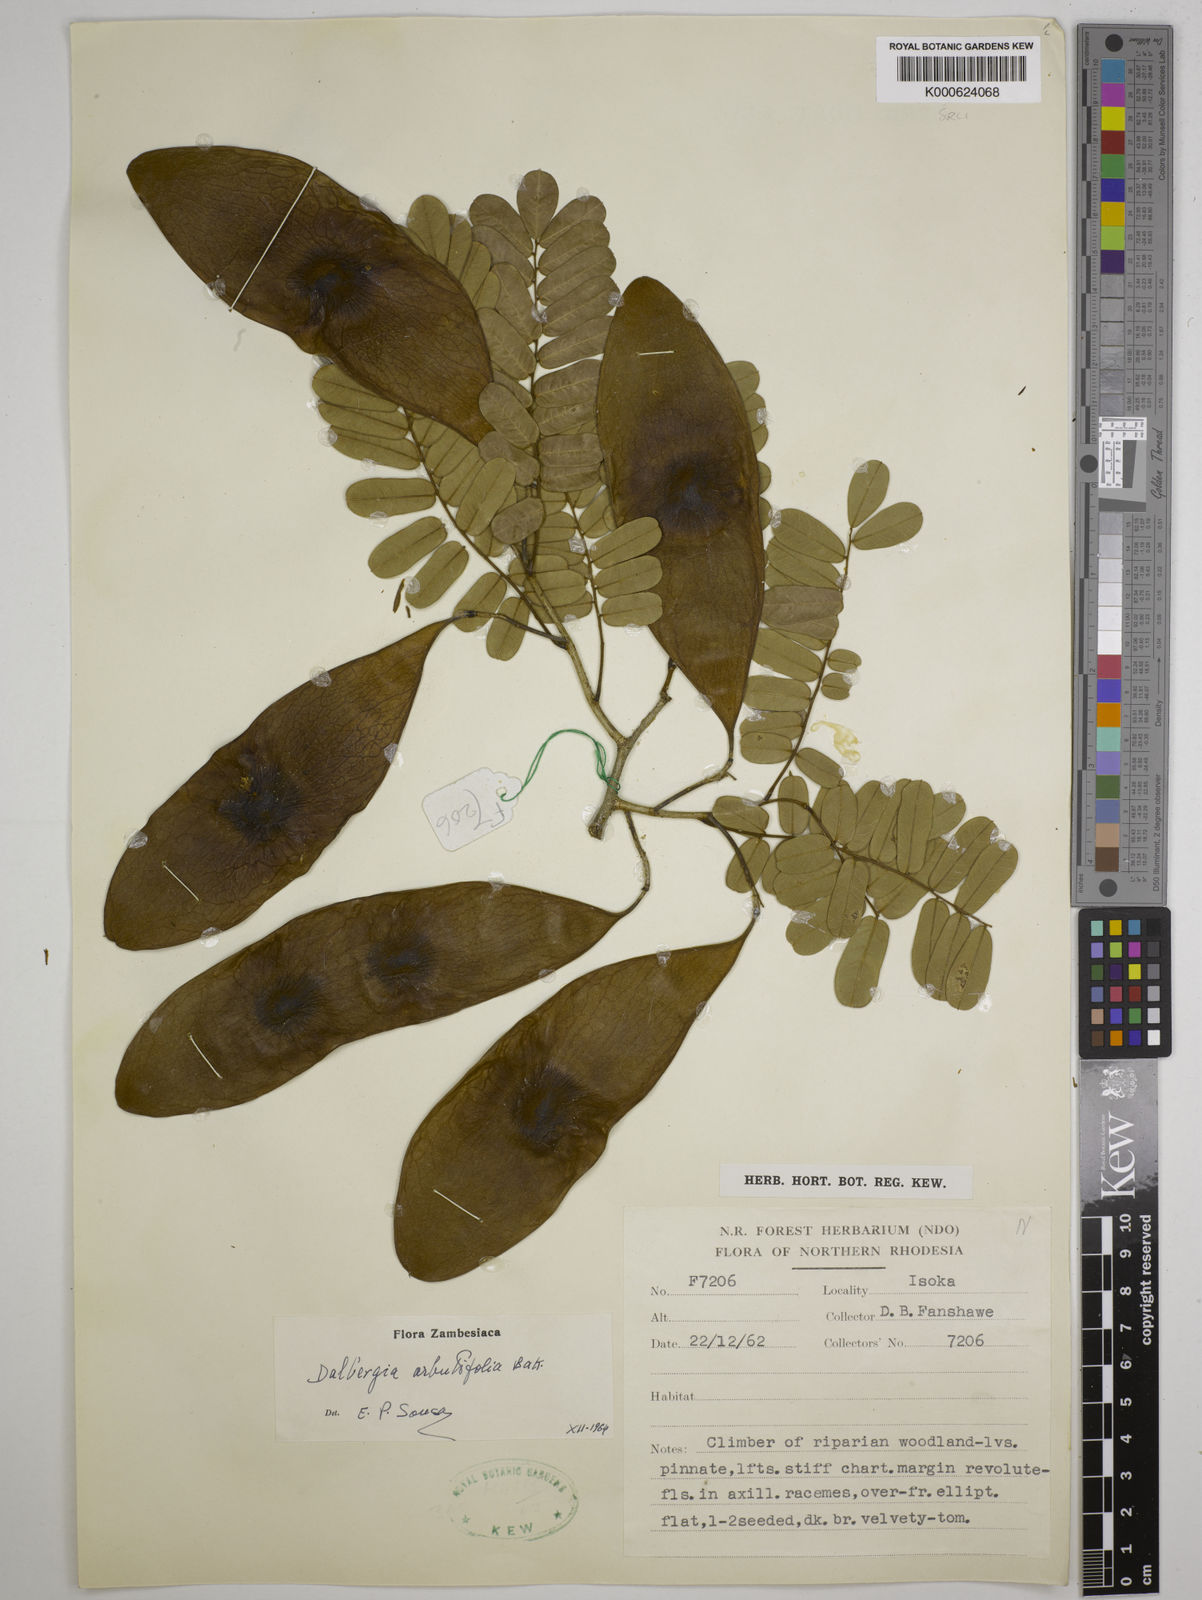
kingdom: Plantae
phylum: Tracheophyta
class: Magnoliopsida
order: Fabales
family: Fabaceae
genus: Dalbergia
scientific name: Dalbergia arbutifolia
